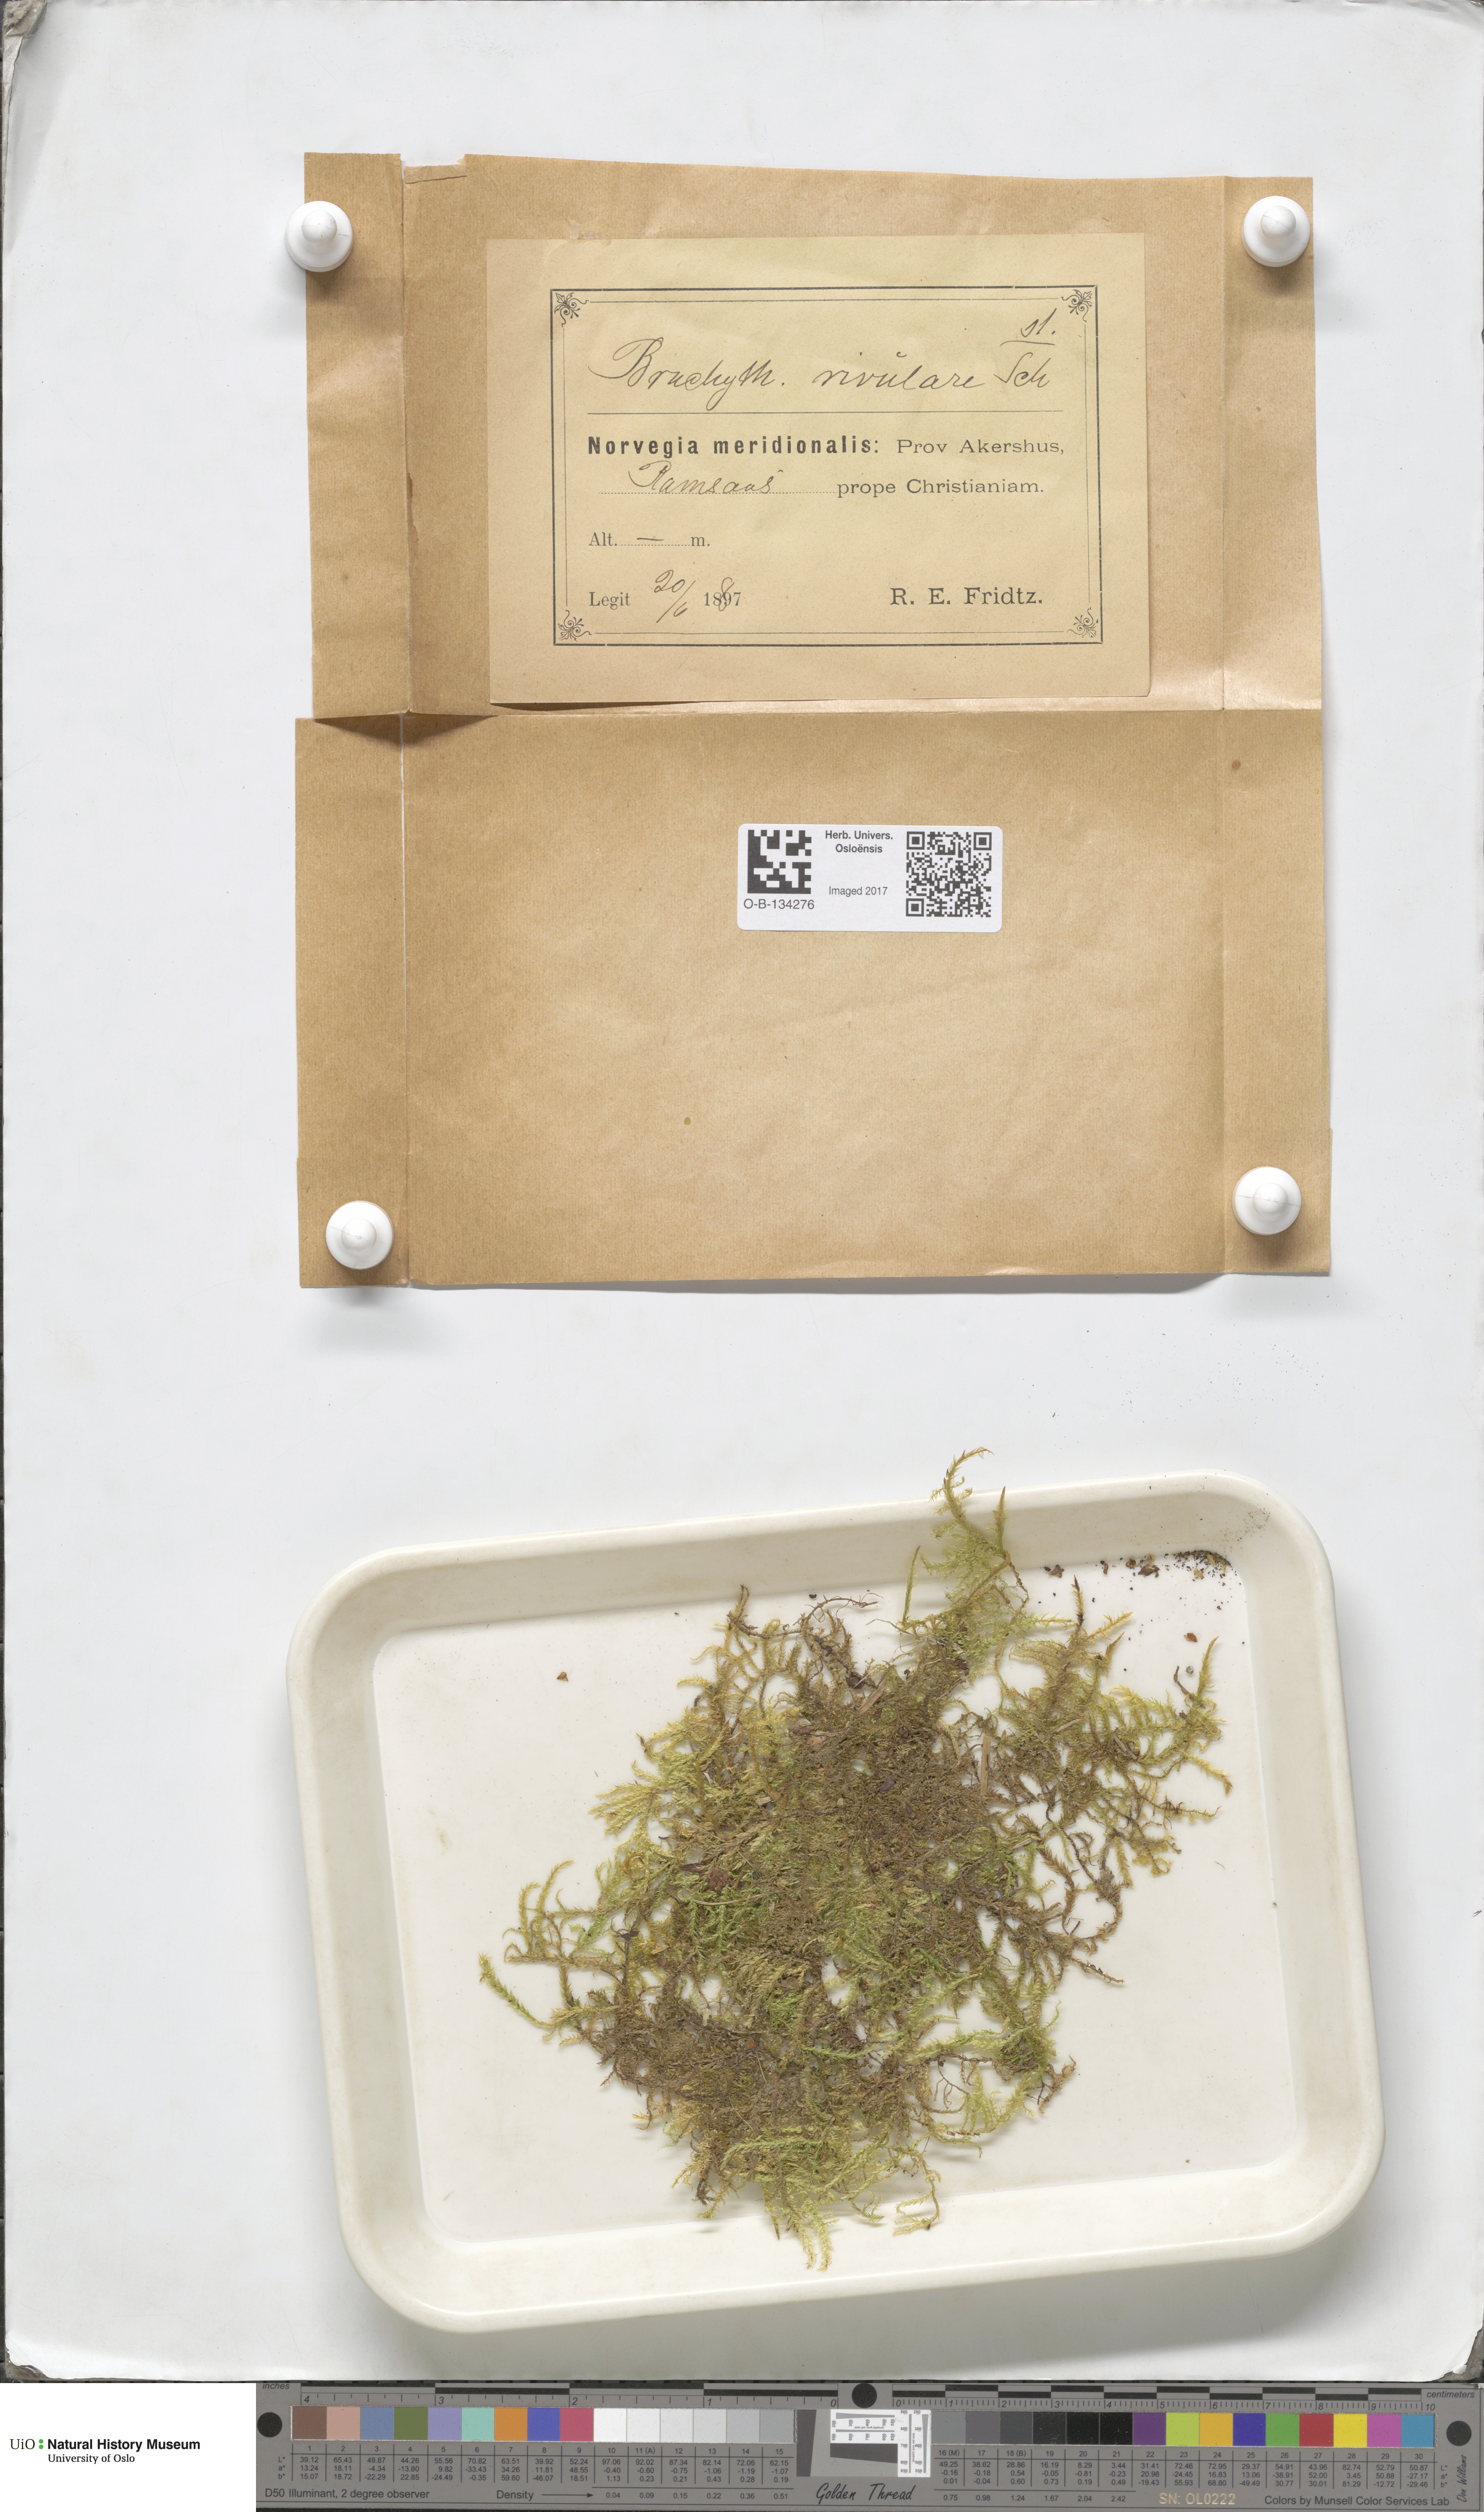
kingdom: Plantae
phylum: Bryophyta
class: Bryopsida
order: Hypnales
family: Brachytheciaceae
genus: Brachythecium
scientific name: Brachythecium rivulare
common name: River ragged moss
